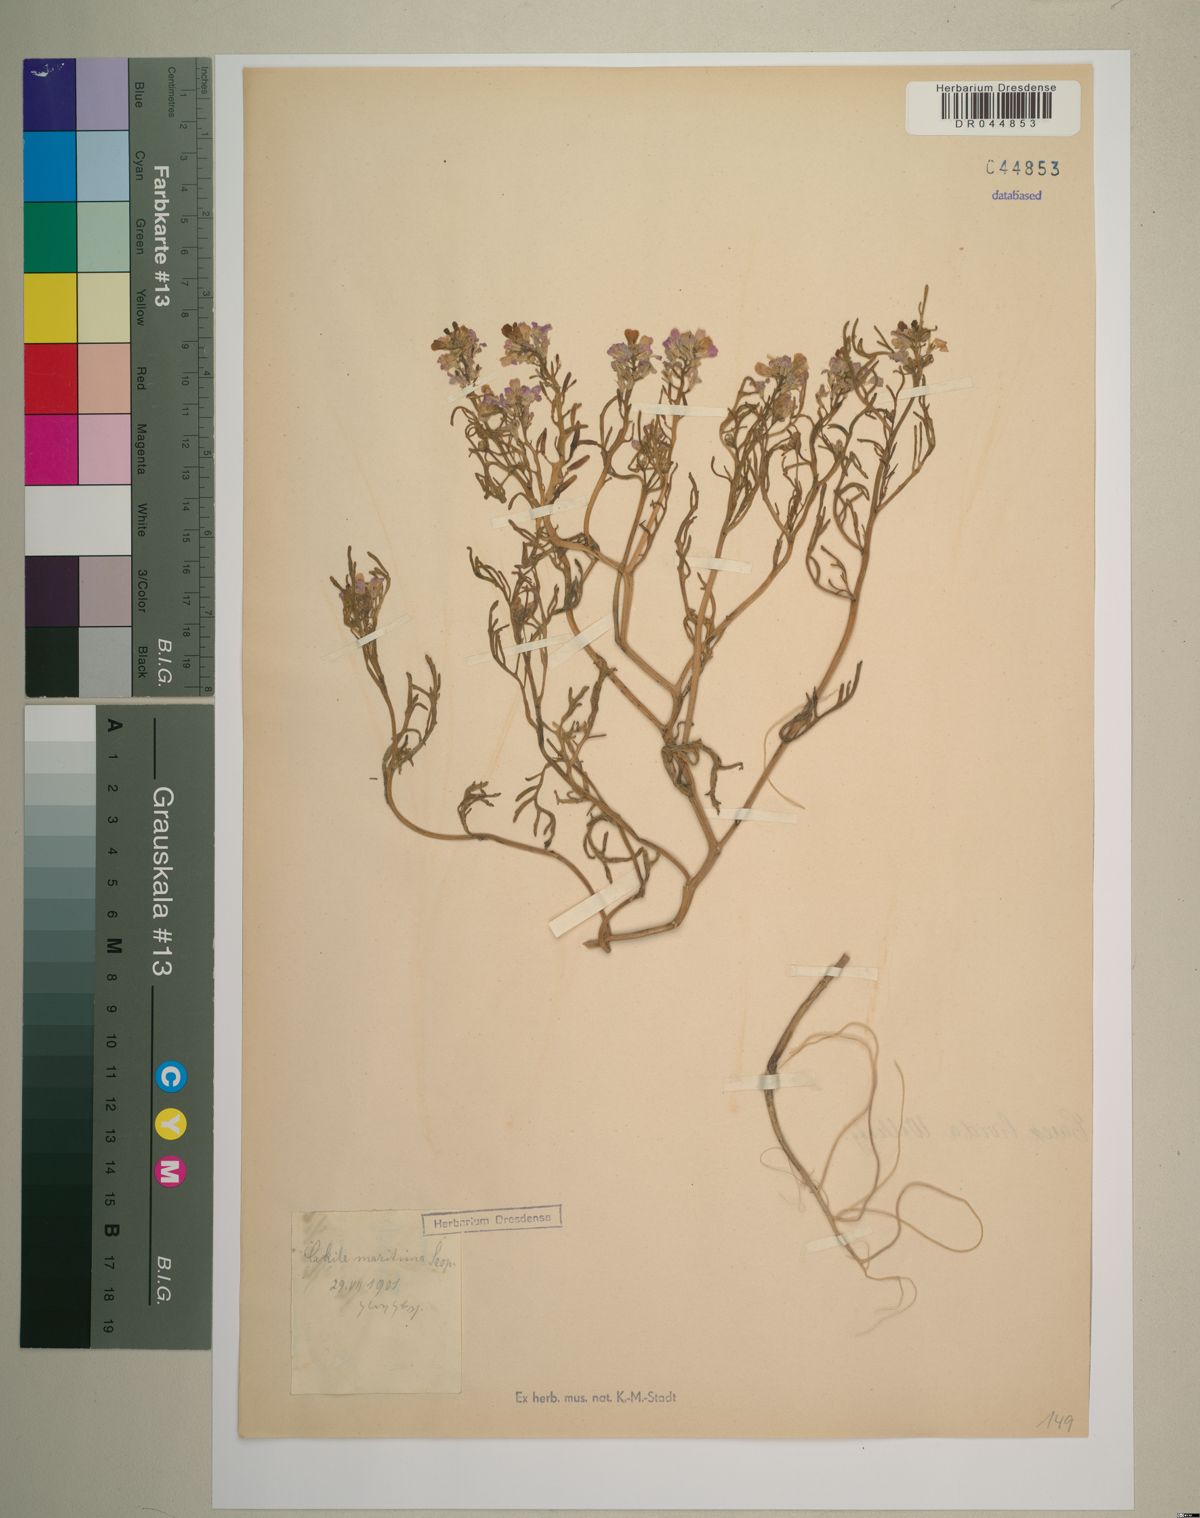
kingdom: Plantae
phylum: Tracheophyta
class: Magnoliopsida
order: Brassicales
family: Brassicaceae
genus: Cakile
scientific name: Cakile maritima
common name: Sea rocket
